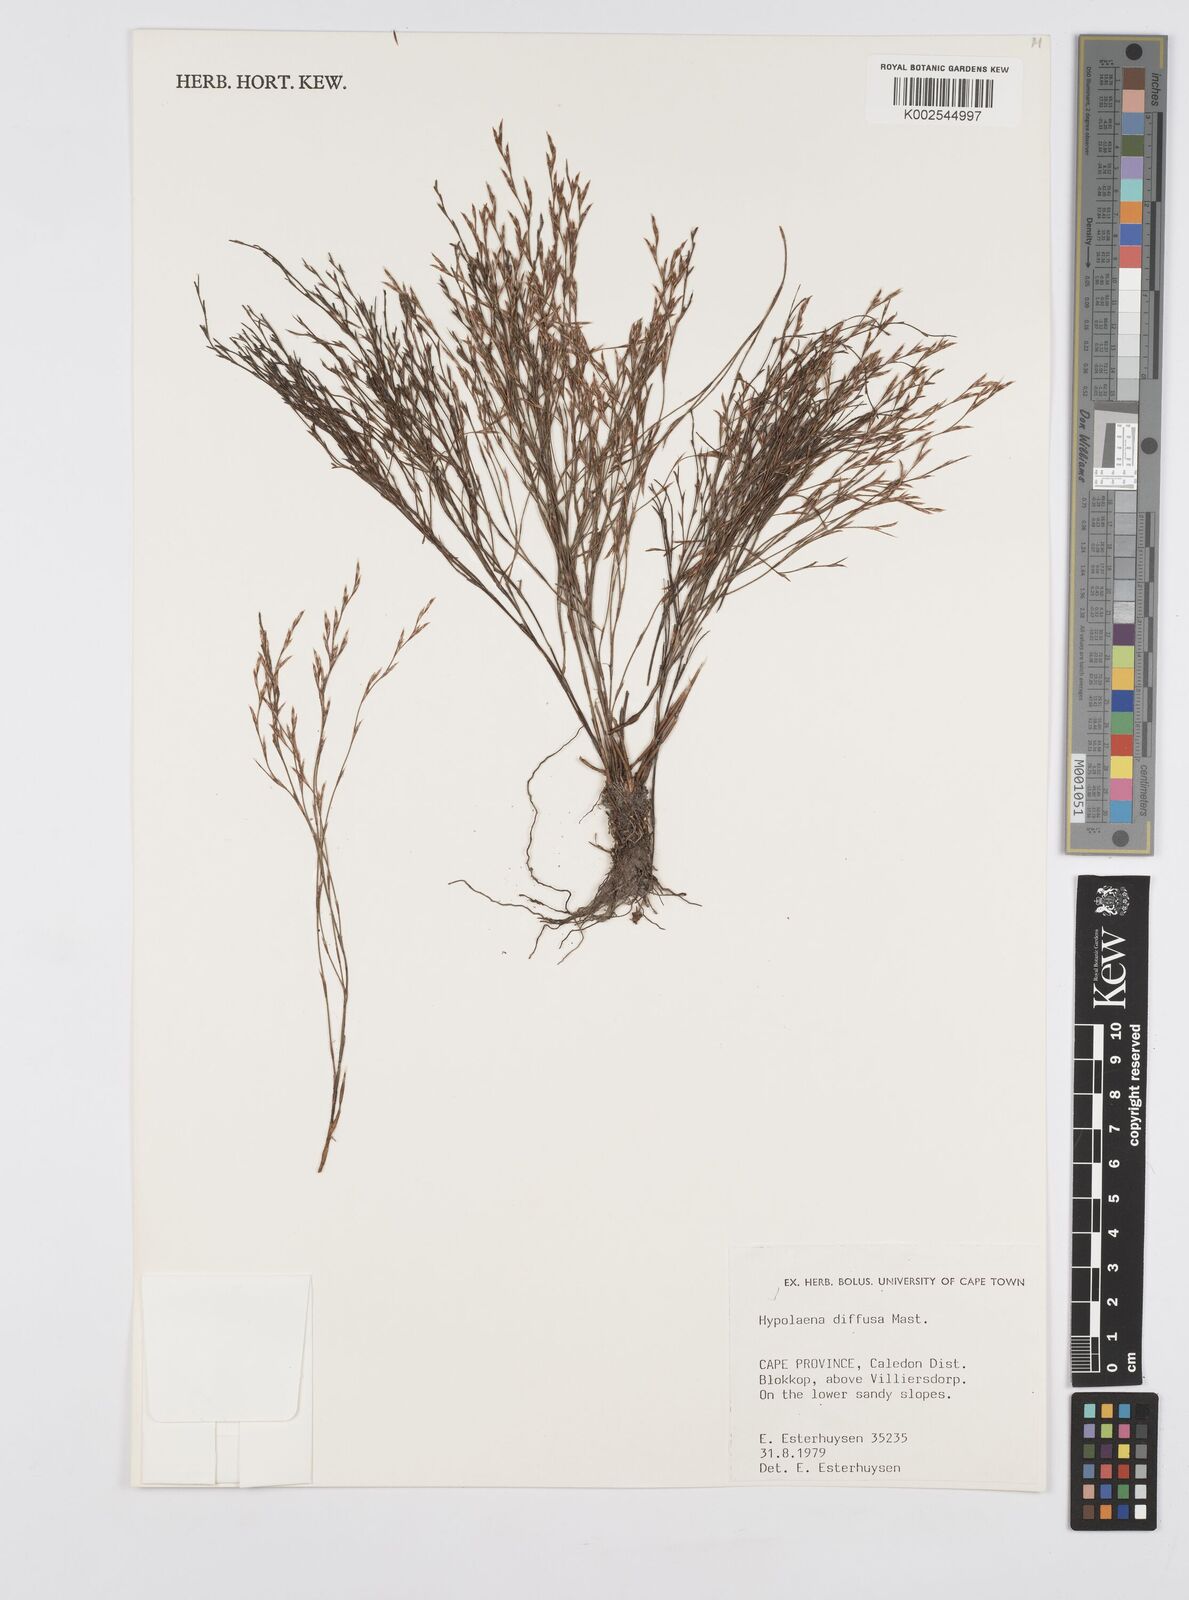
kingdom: Plantae
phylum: Tracheophyta
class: Liliopsida
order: Poales
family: Restionaceae
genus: Anthochortus
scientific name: Anthochortus crinalis
